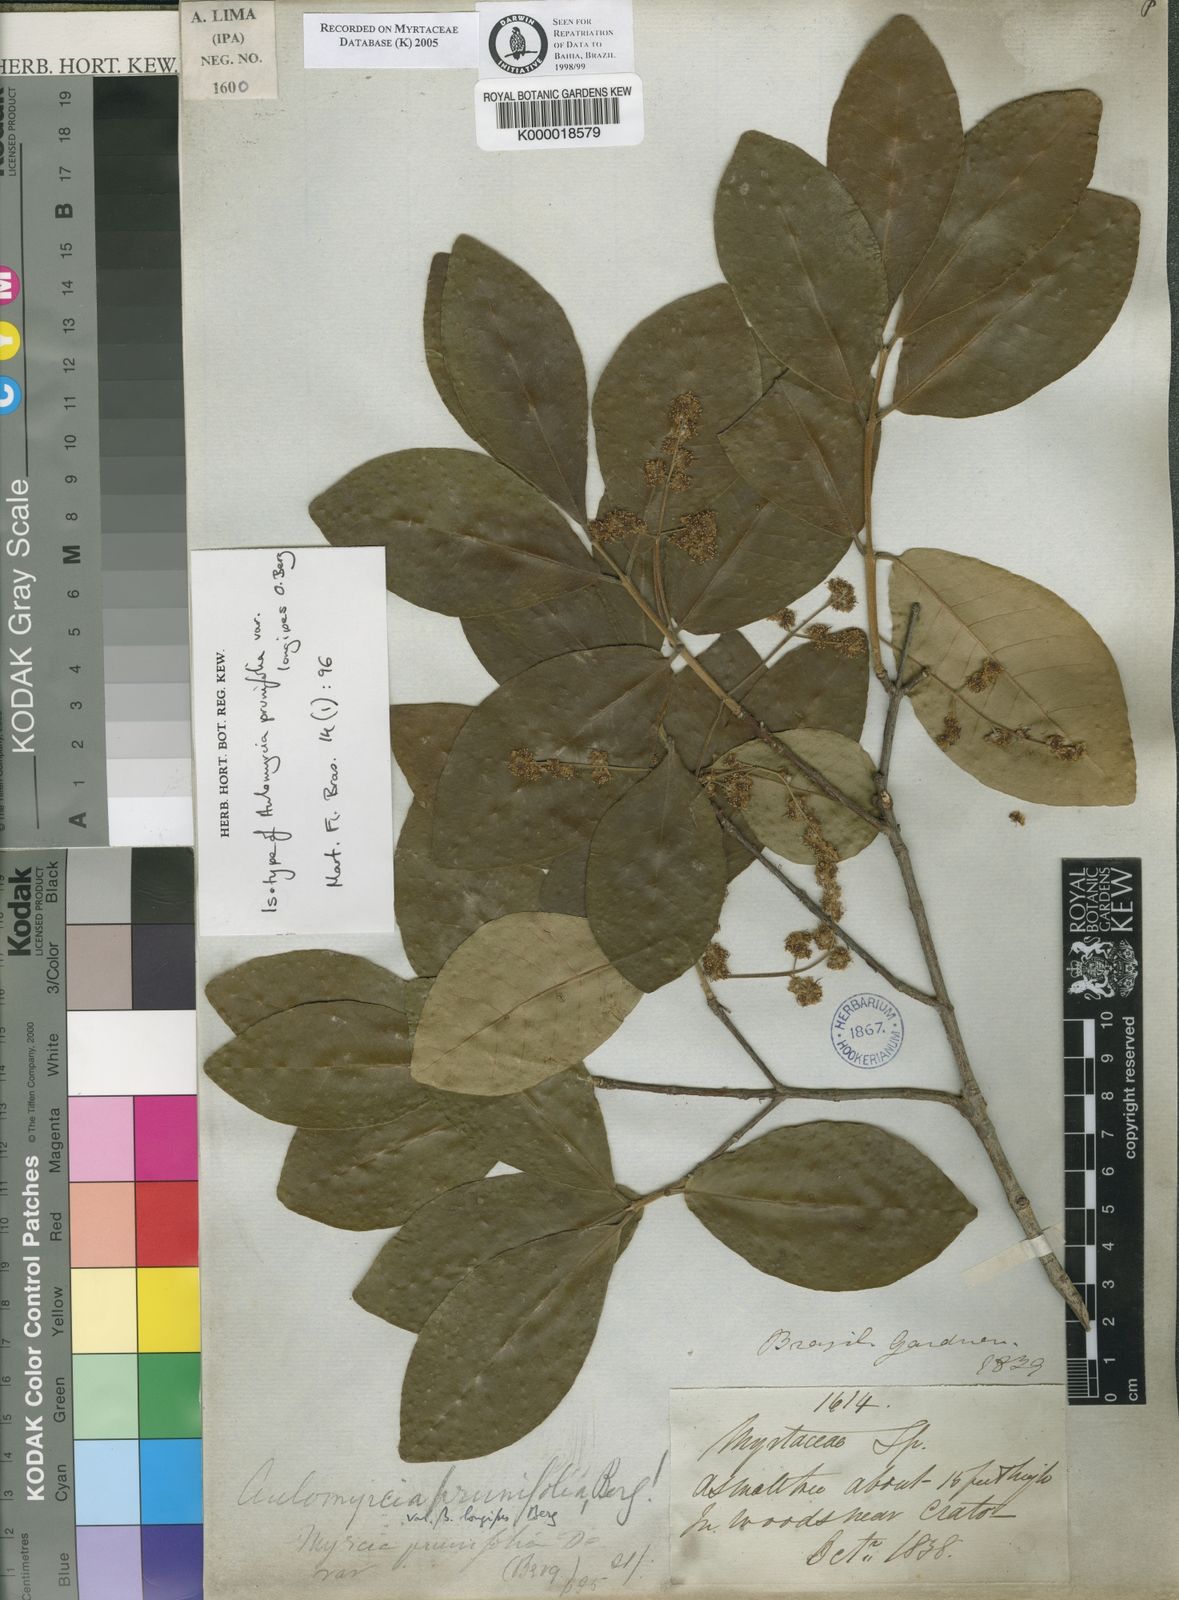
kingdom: Plantae
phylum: Tracheophyta
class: Magnoliopsida
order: Myrtales
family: Myrtaceae
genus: Myrcia
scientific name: Myrcia tomentosa
